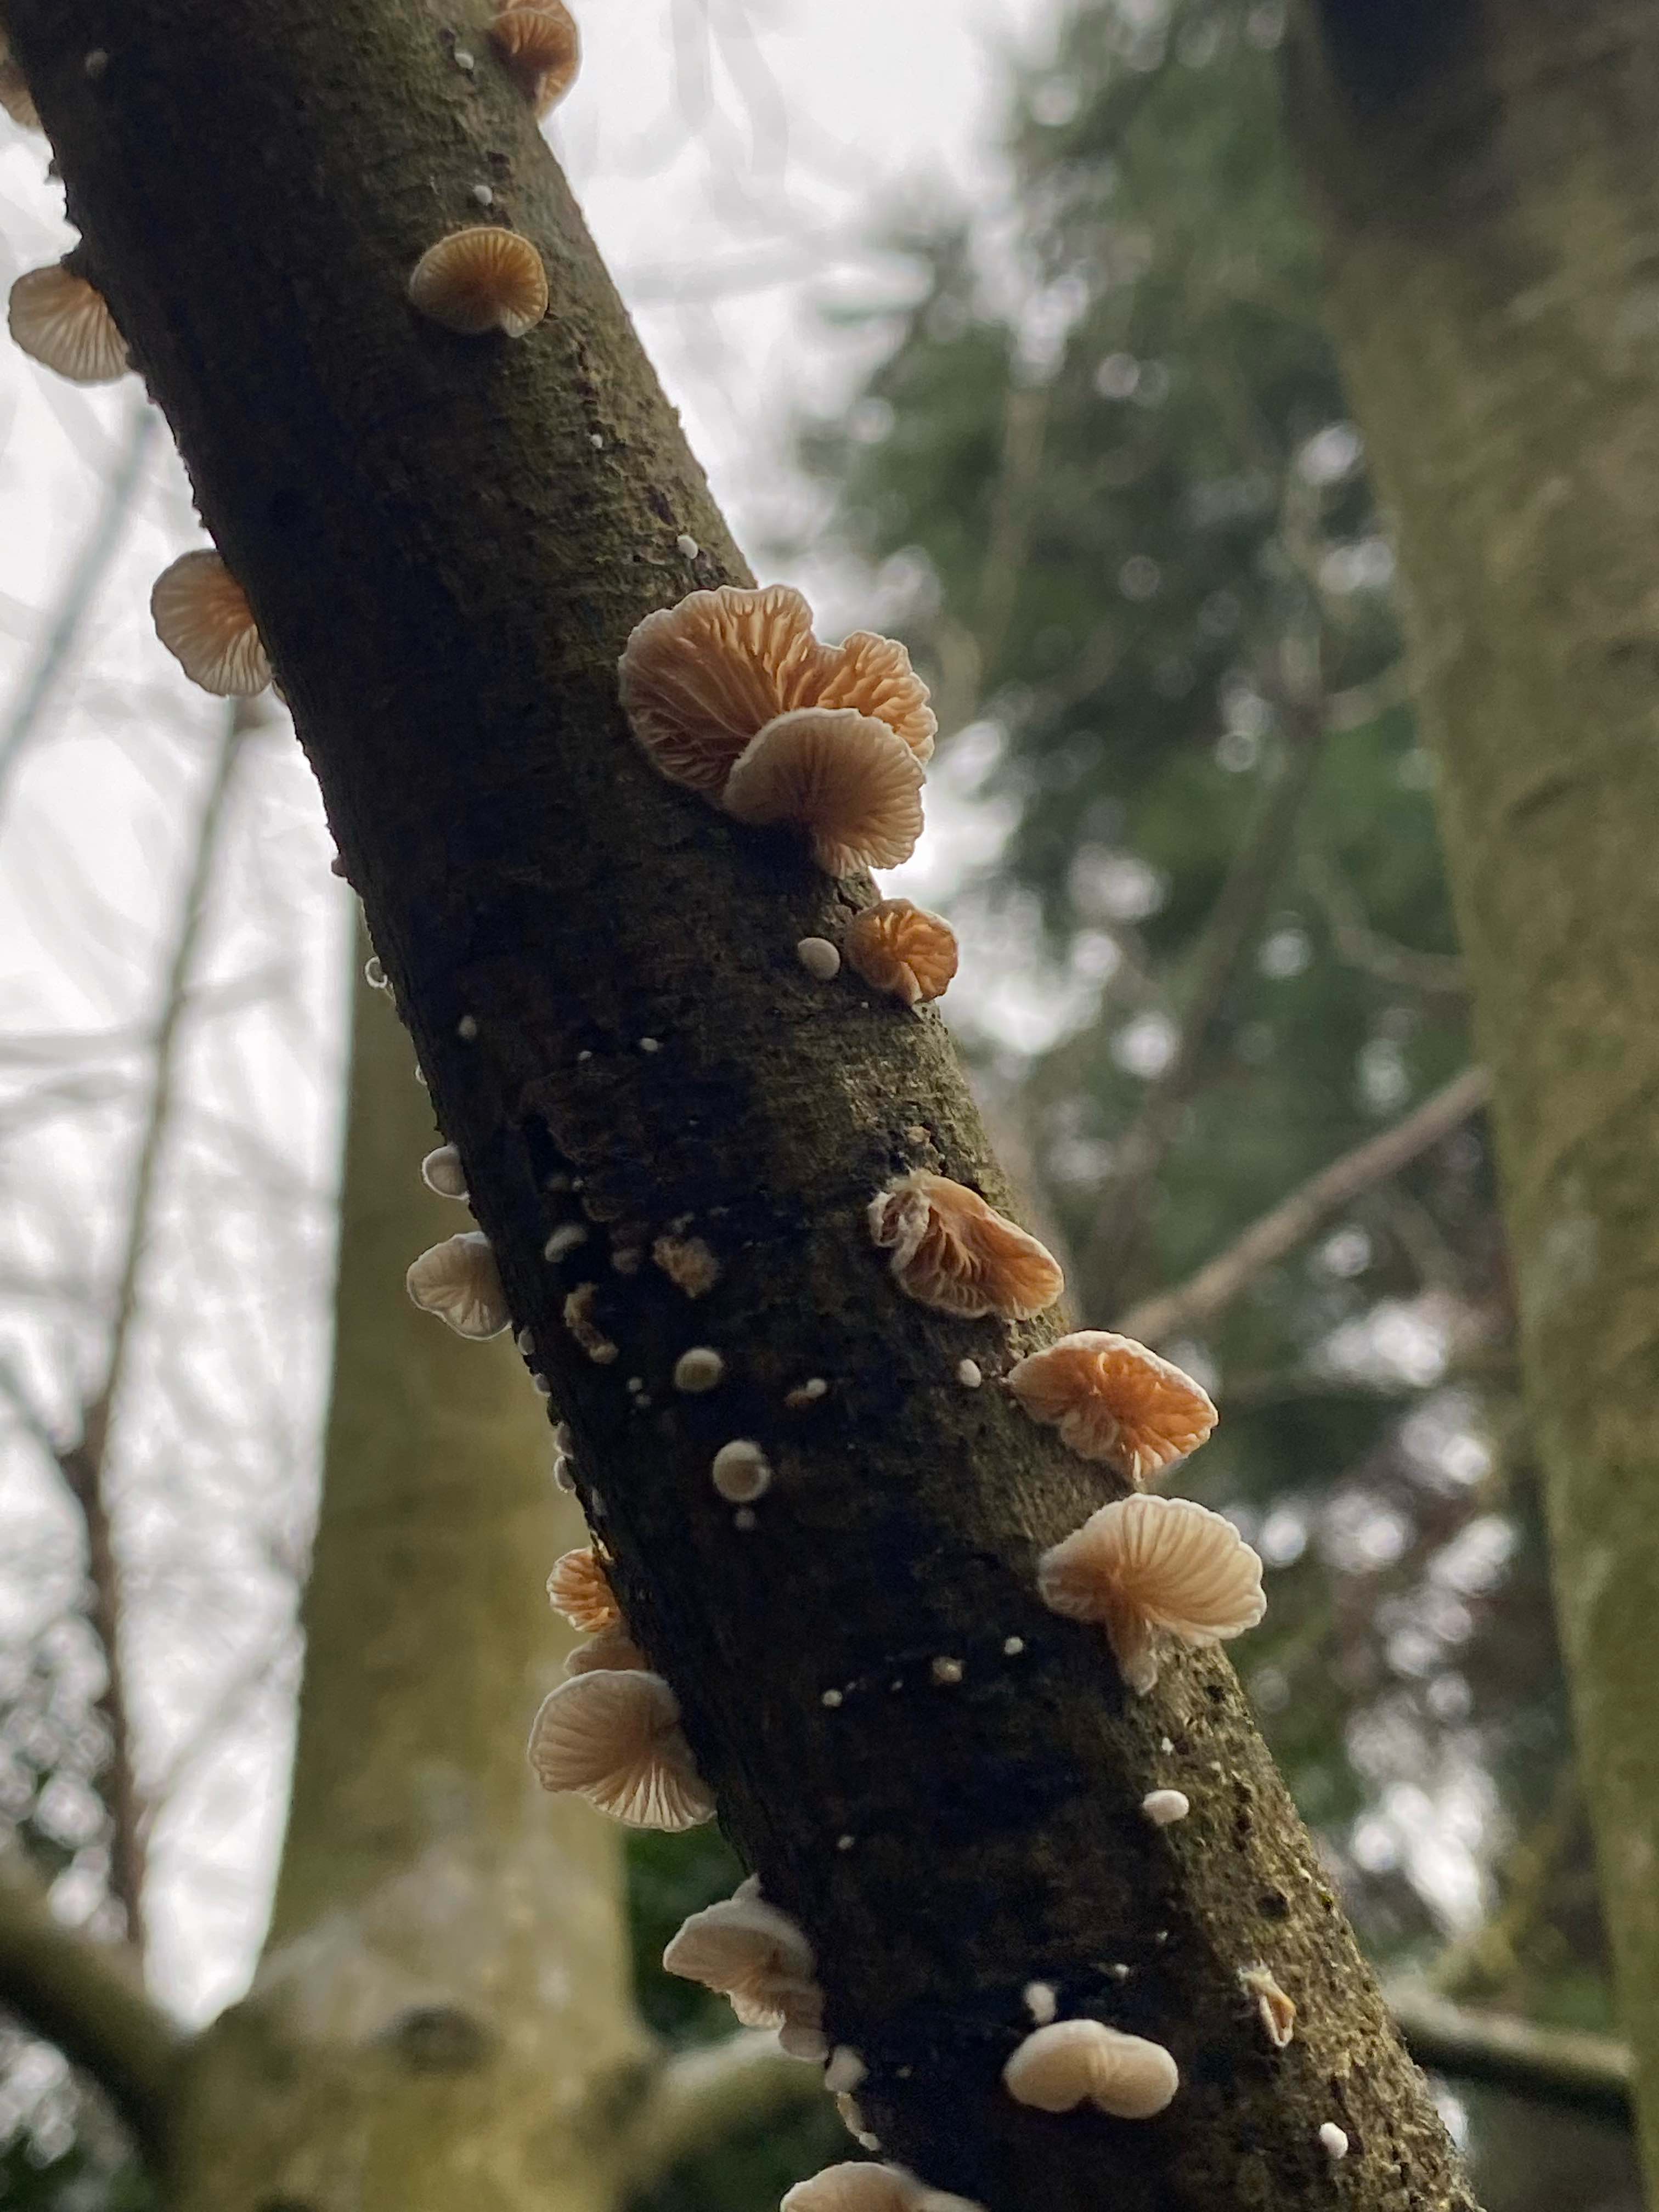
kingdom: Fungi
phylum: Basidiomycota
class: Agaricomycetes
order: Agaricales
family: Crepidotaceae
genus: Crepidotus
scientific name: Crepidotus cesatii
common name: almindelig muslingesvamp
